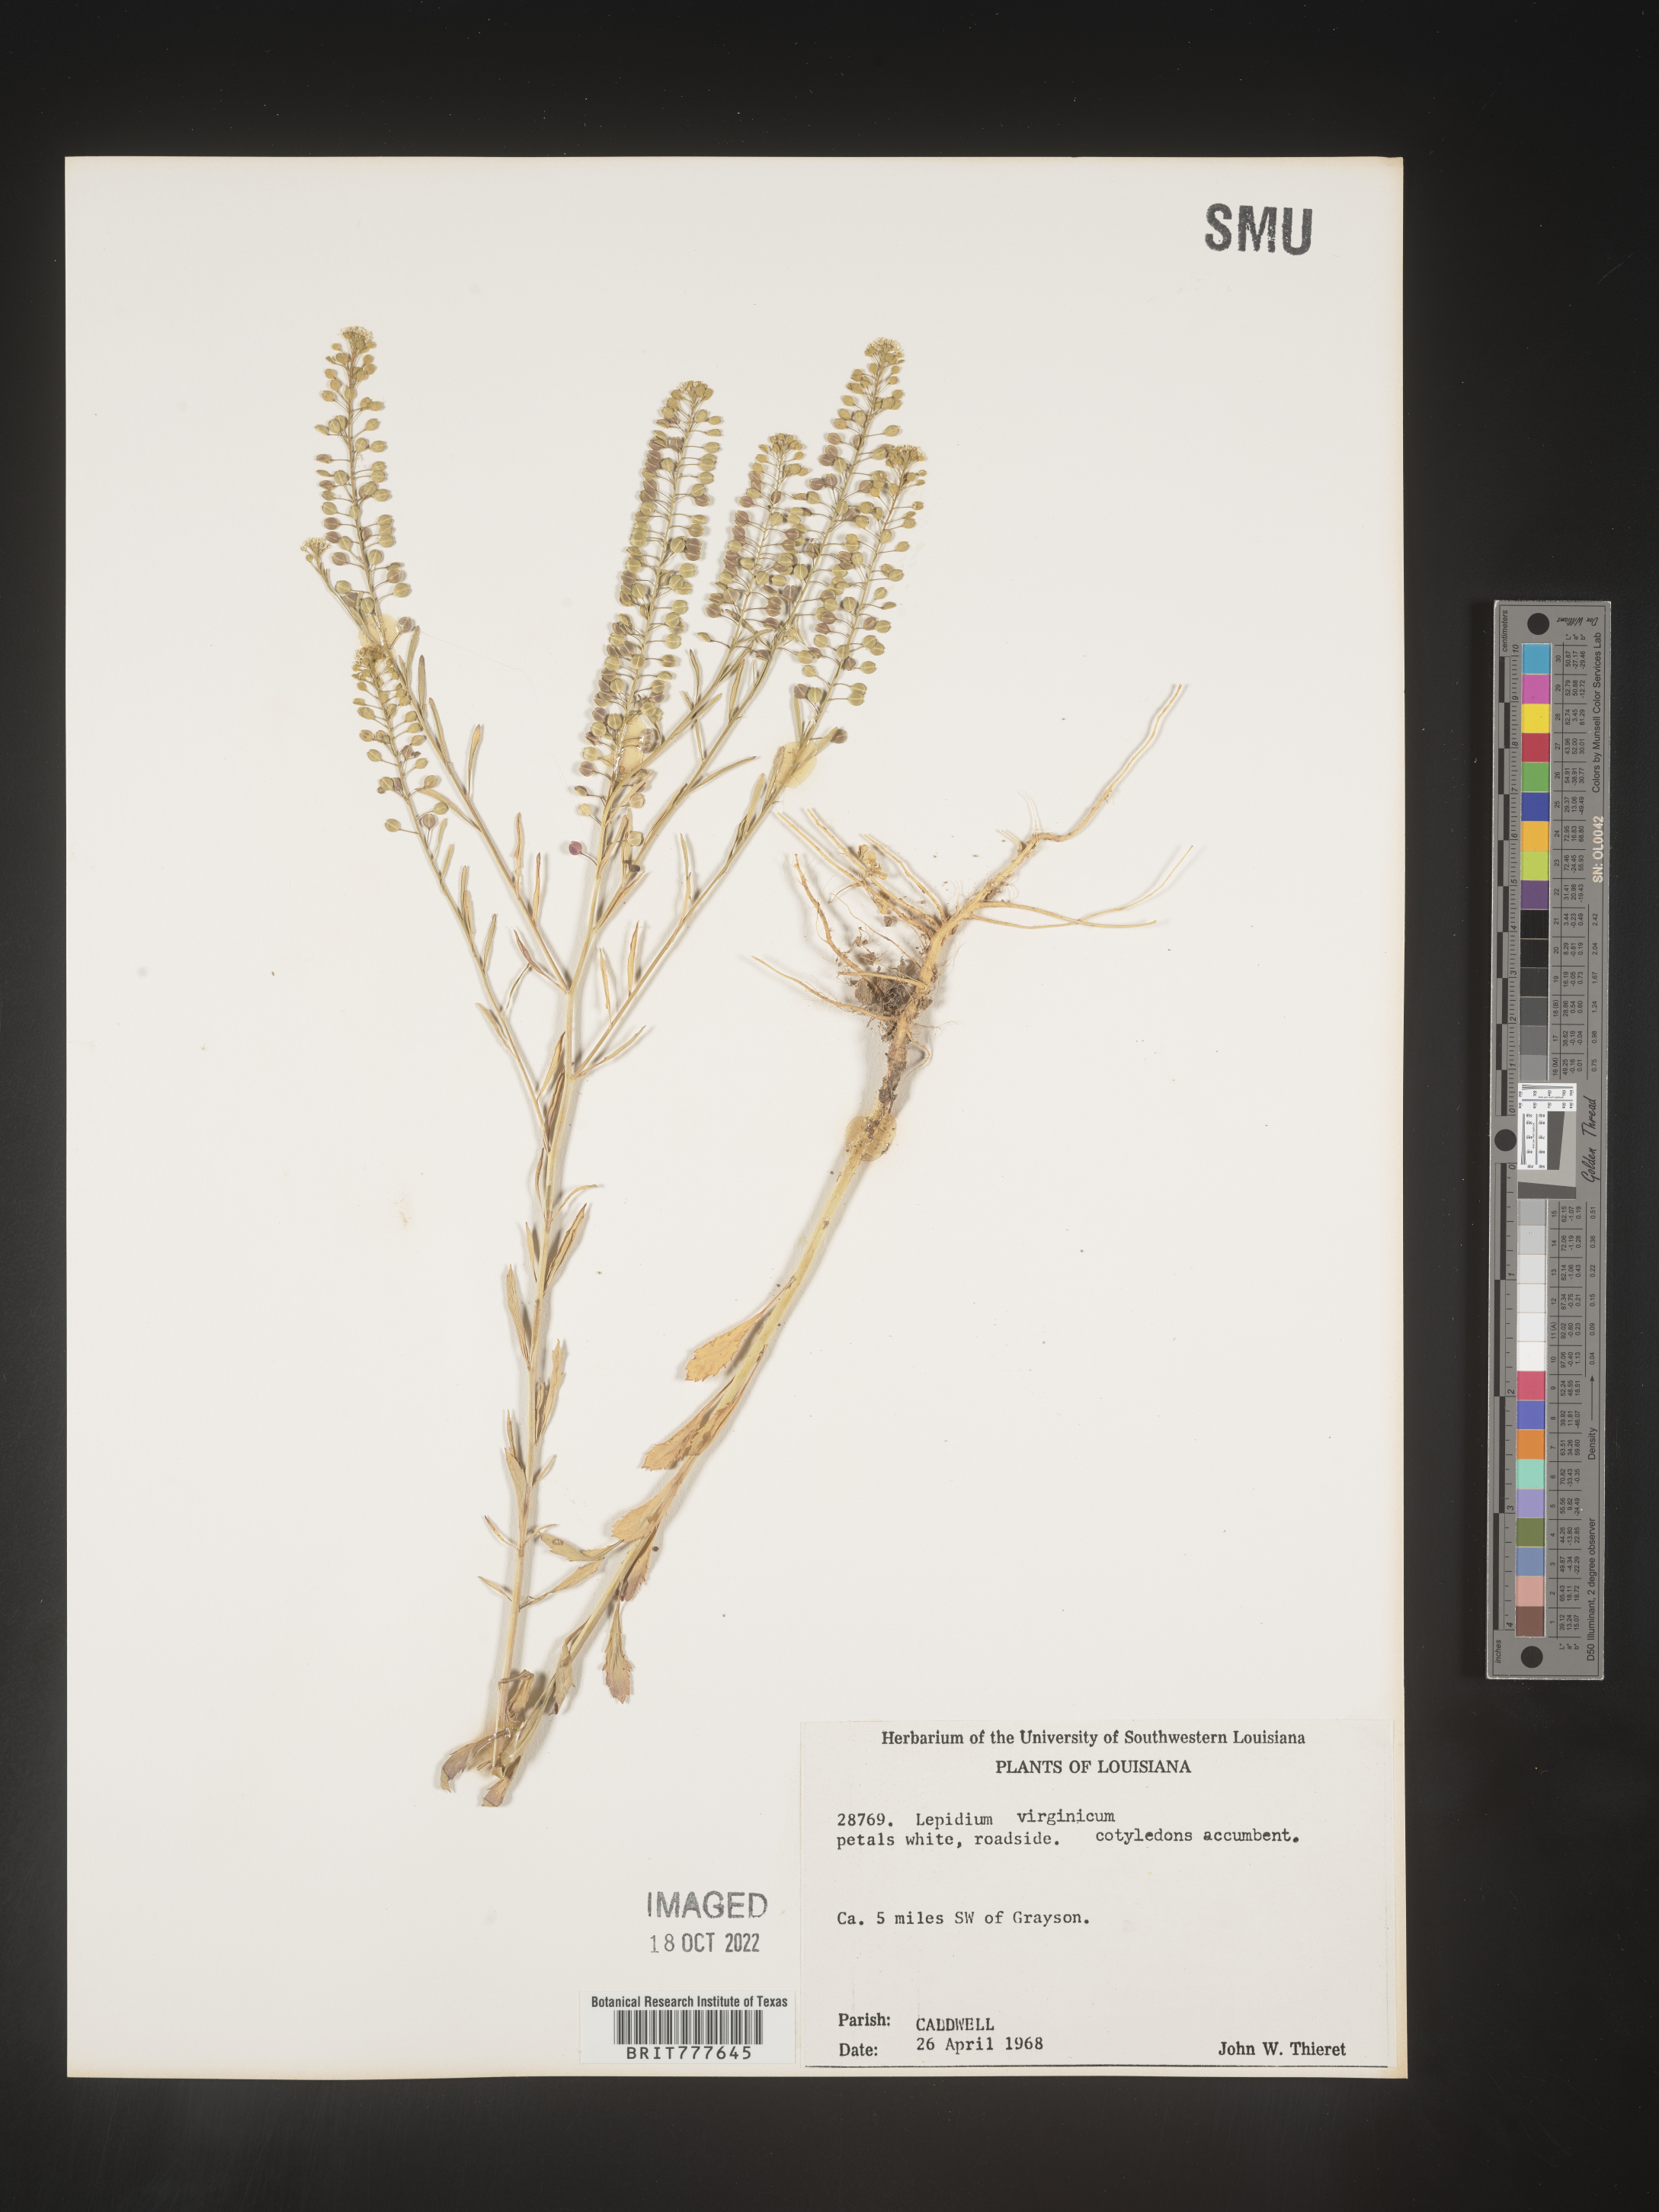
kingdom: Plantae
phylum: Tracheophyta
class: Magnoliopsida
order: Brassicales
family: Brassicaceae
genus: Lepidium
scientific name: Lepidium virginicum
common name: Least pepperwort
